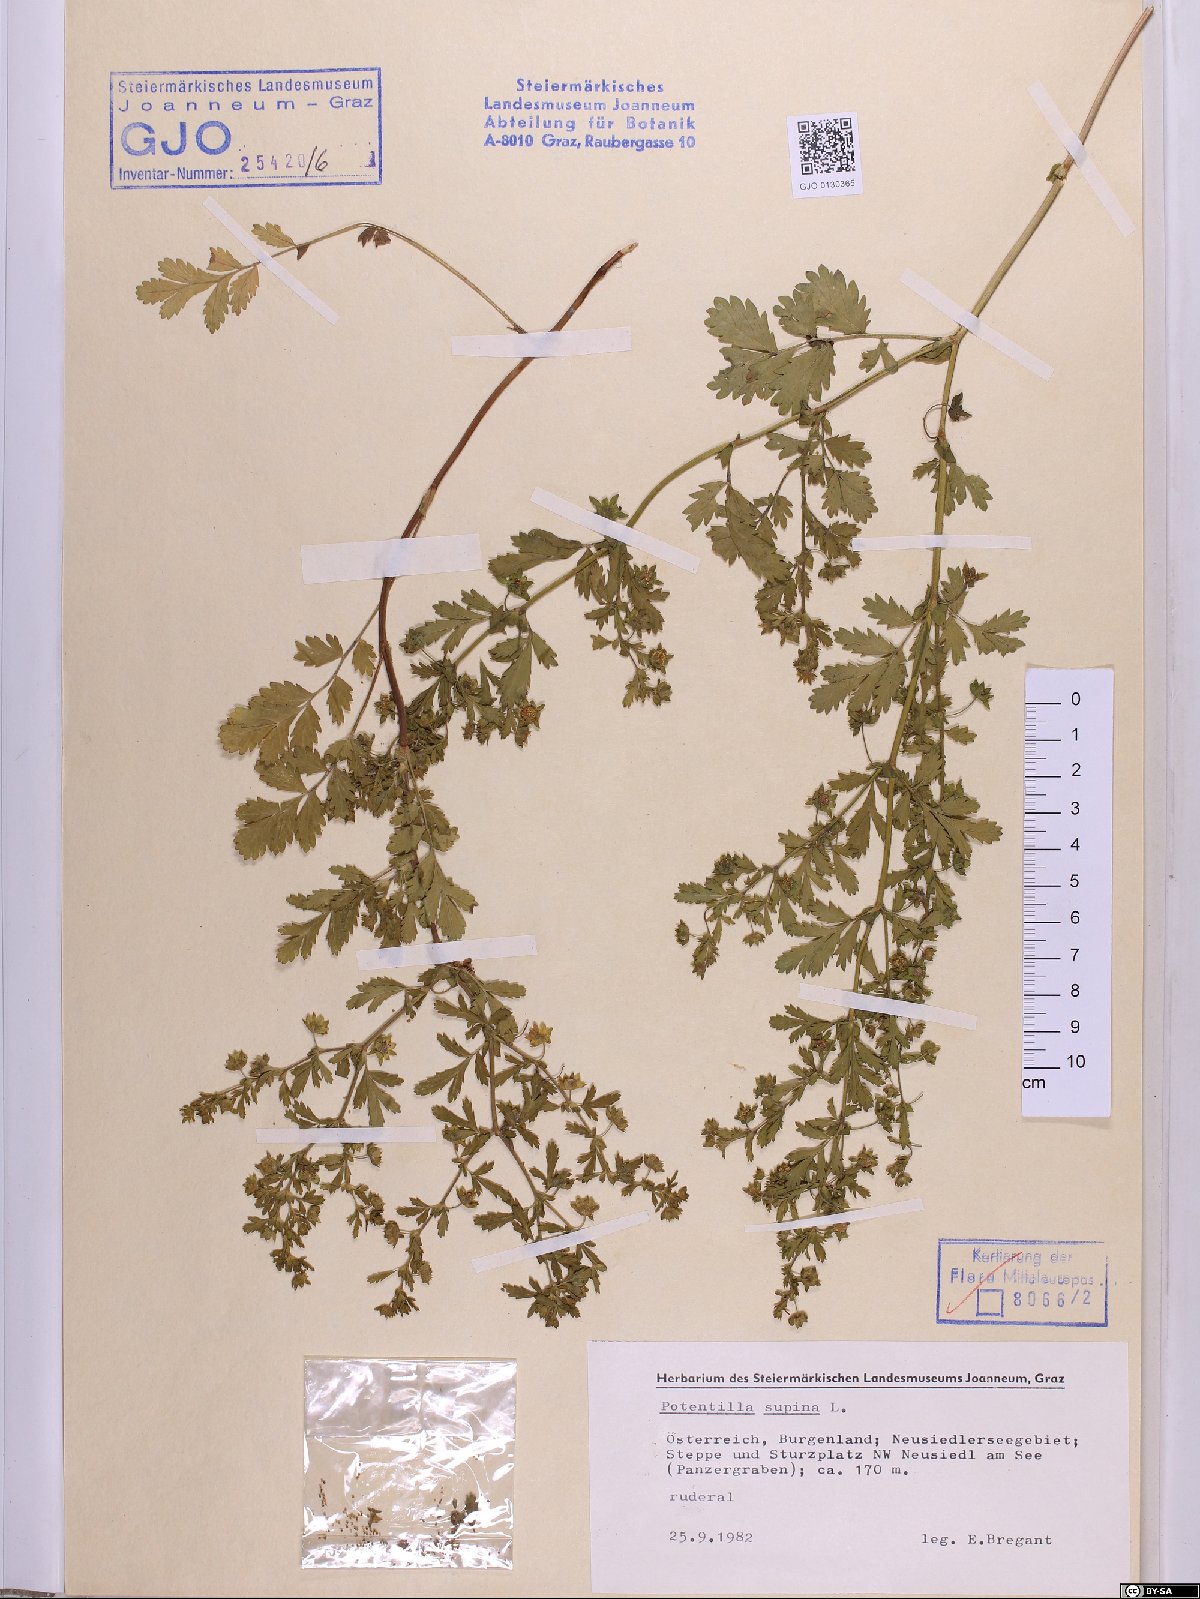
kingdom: Plantae
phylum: Tracheophyta
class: Magnoliopsida
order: Rosales
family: Rosaceae
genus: Potentilla
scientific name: Potentilla supina
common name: Prostrate cinquefoil
